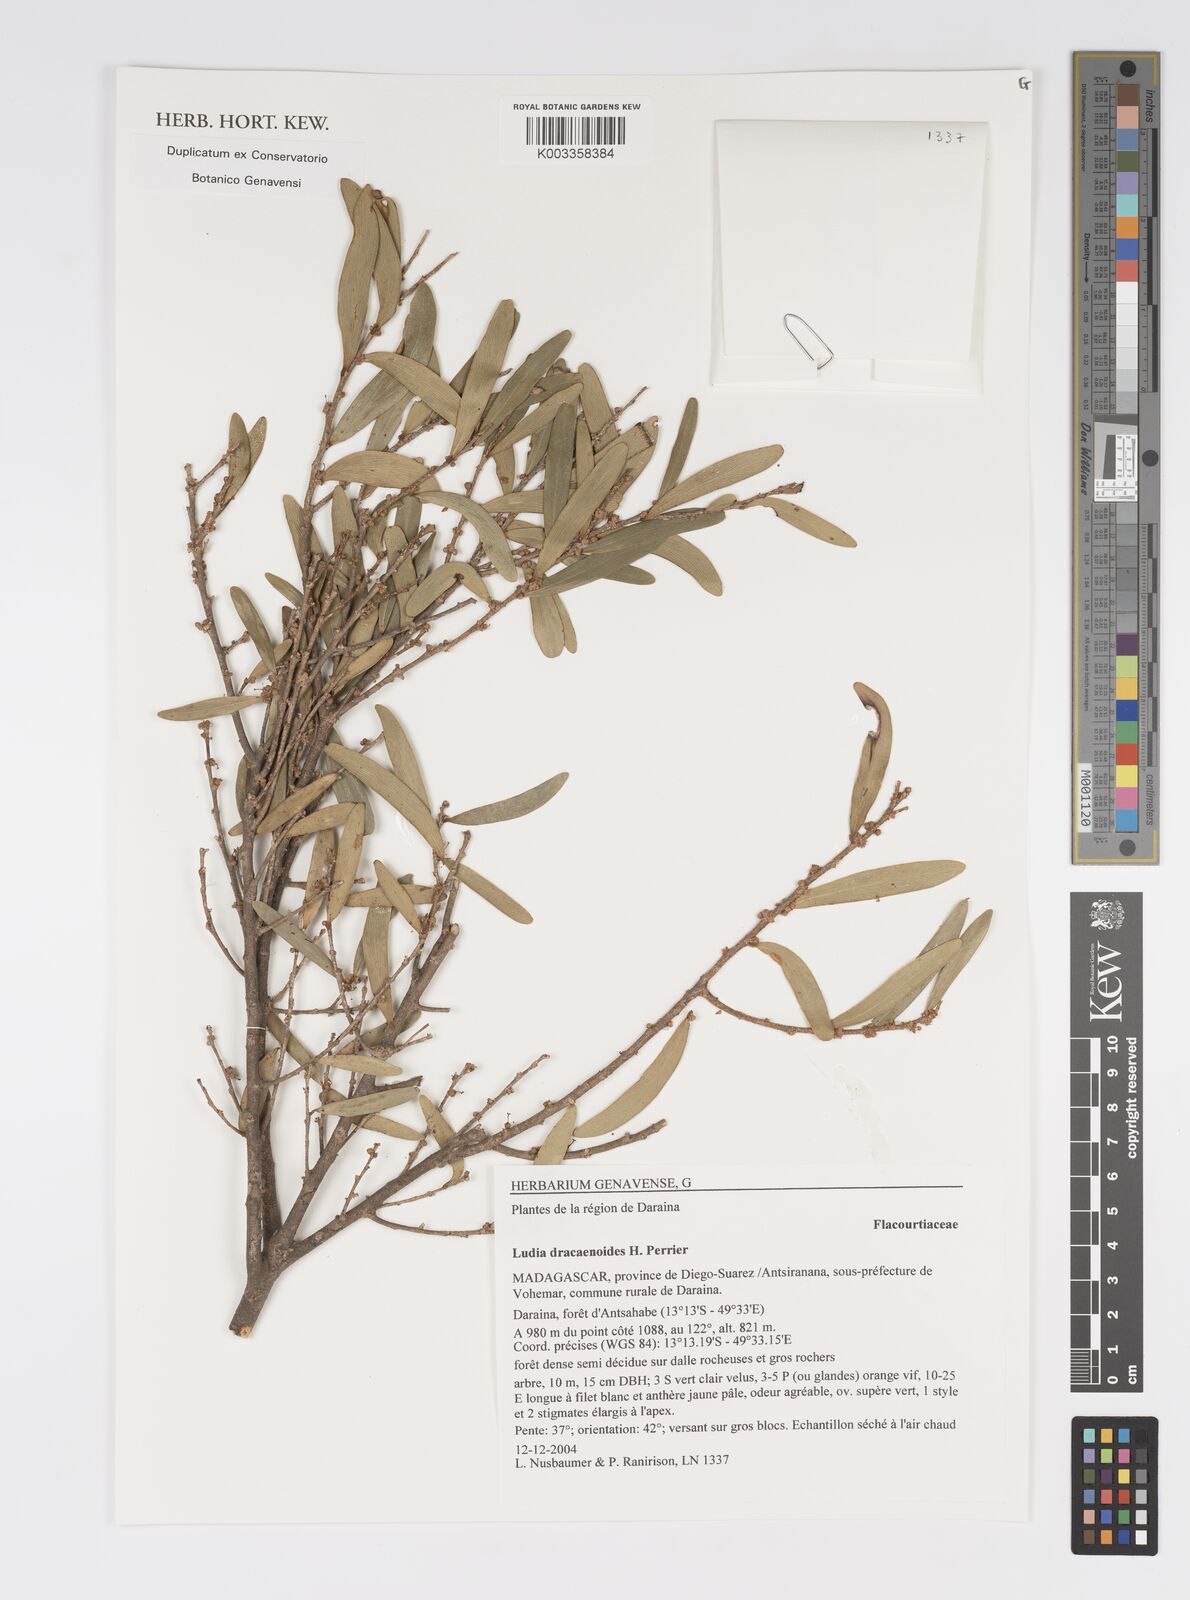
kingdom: Plantae
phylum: Tracheophyta
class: Magnoliopsida
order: Malpighiales
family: Salicaceae
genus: Ludia
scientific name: Ludia dracaenoides
